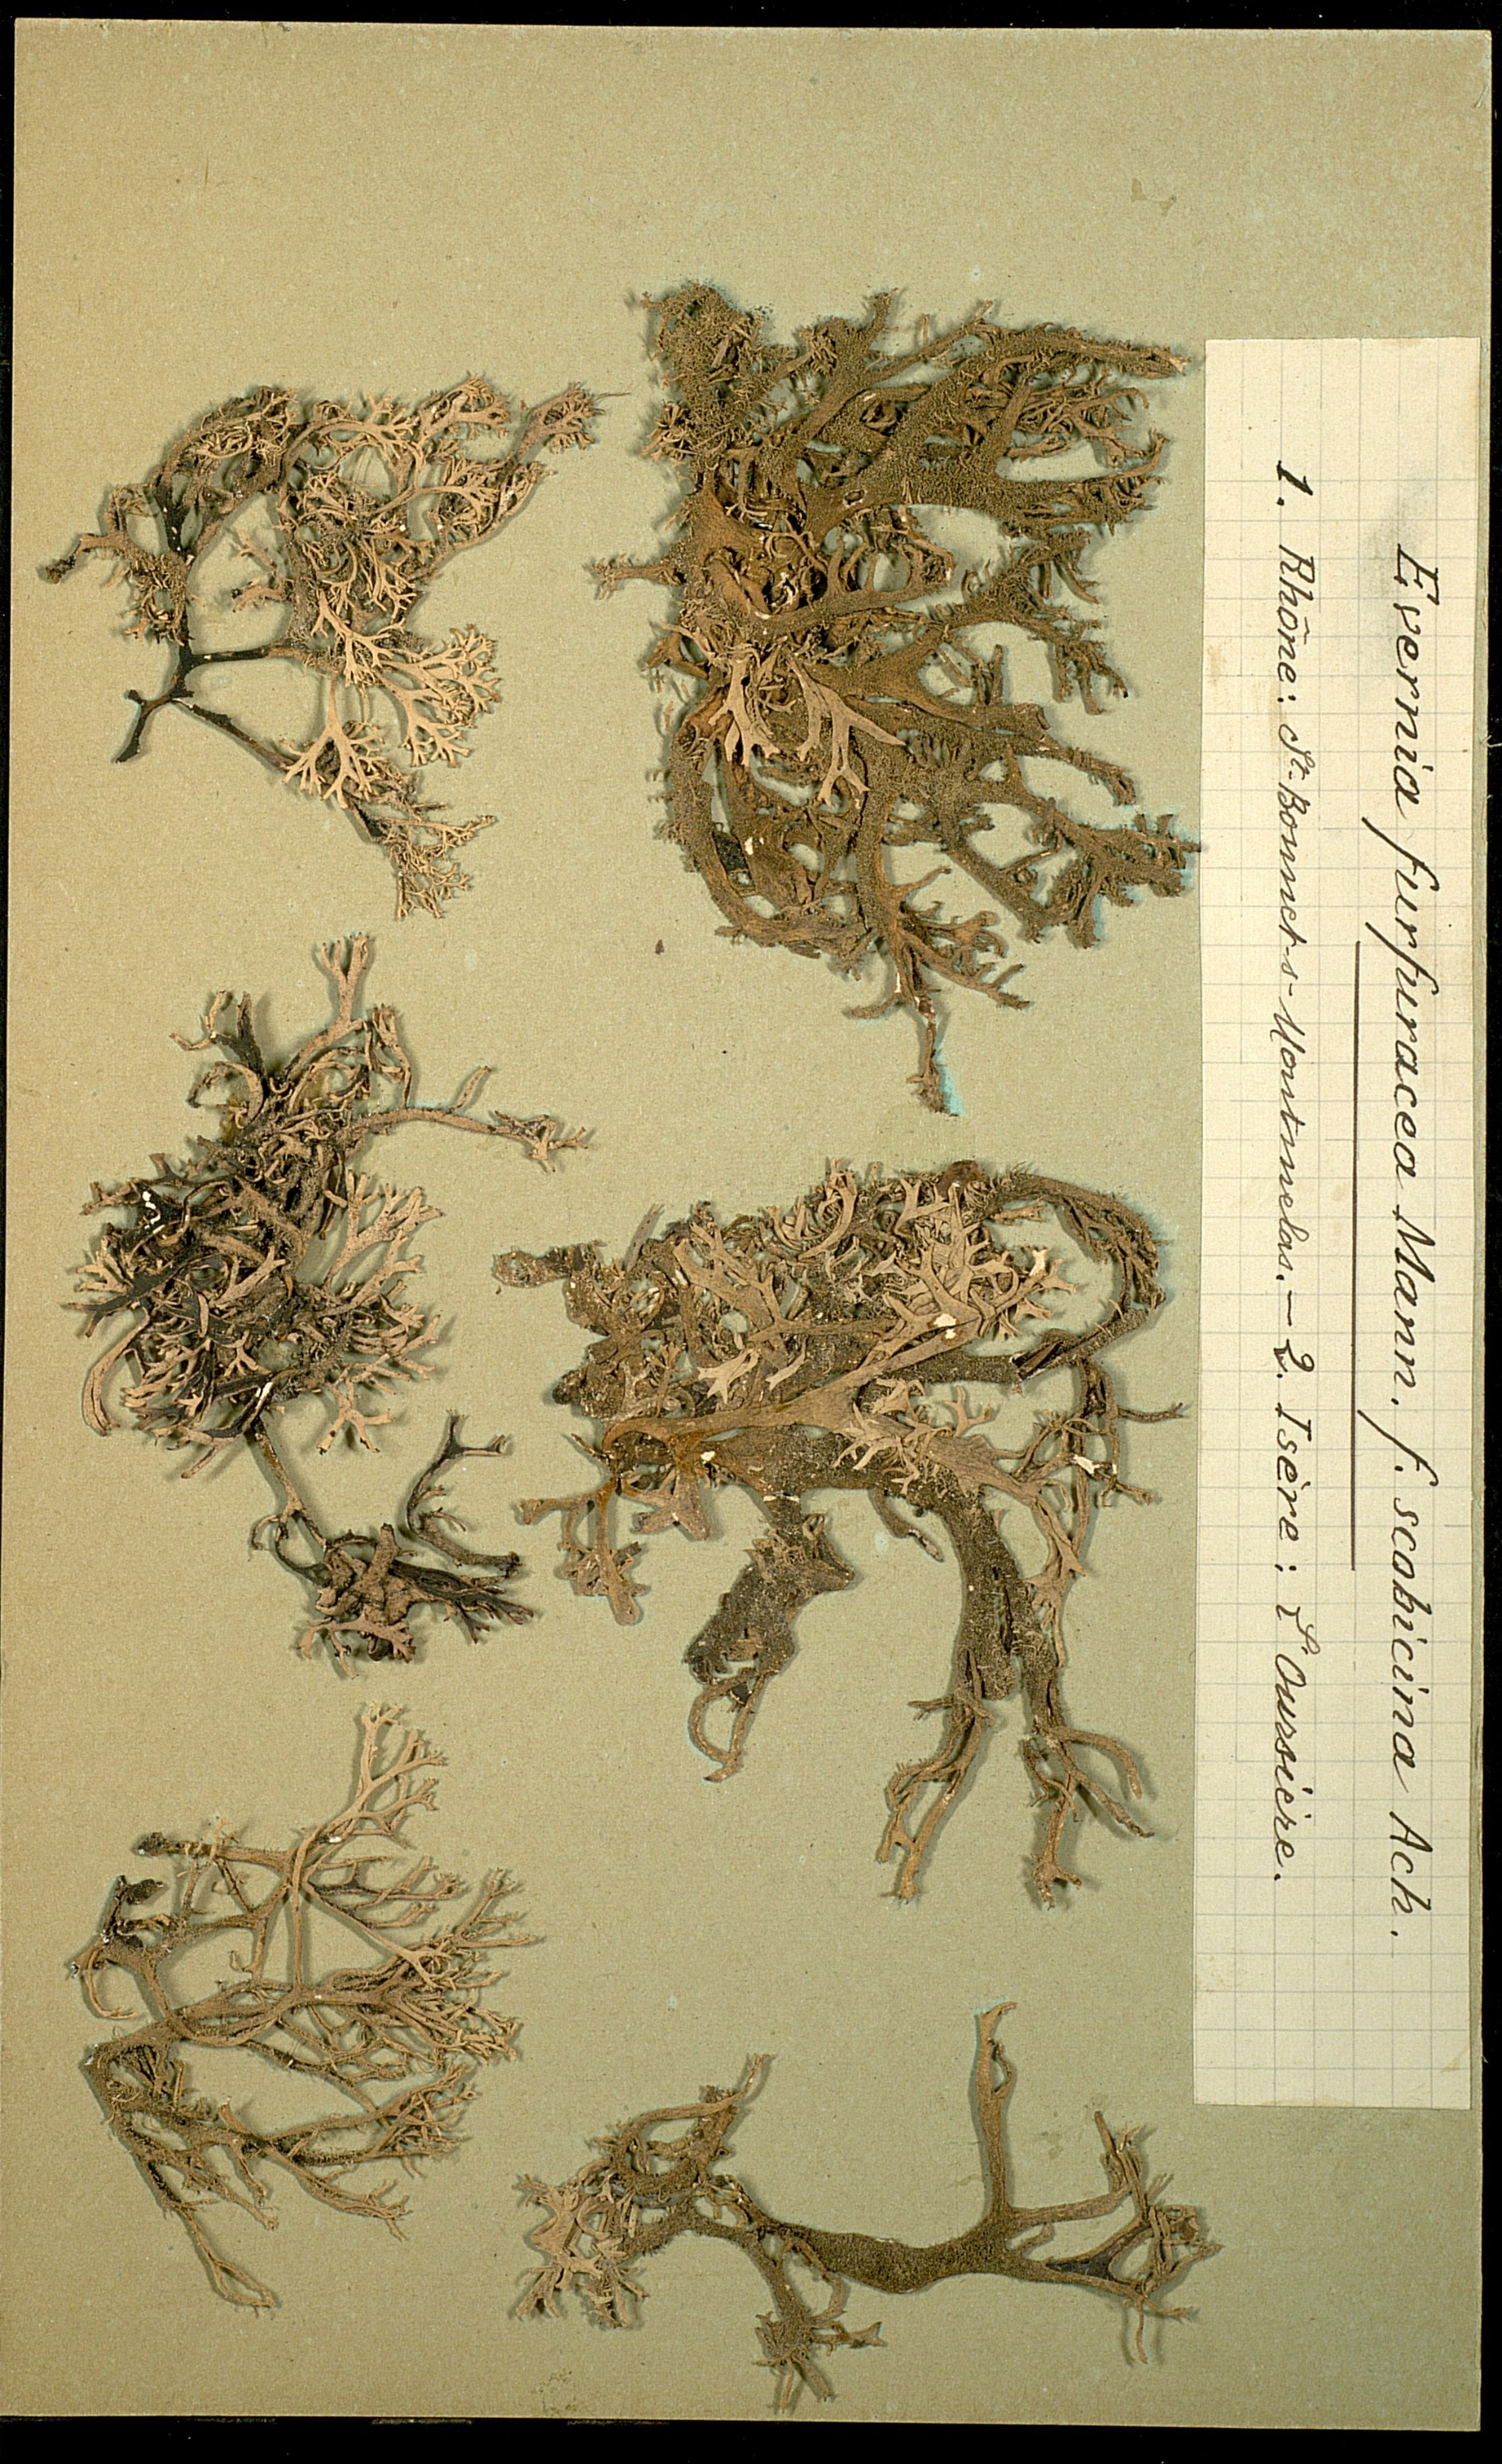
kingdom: Fungi
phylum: Ascomycota
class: Lecanoromycetes
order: Lecanorales
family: Parmeliaceae
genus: Pseudevernia
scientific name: Pseudevernia furfuracea
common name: Tree moss
